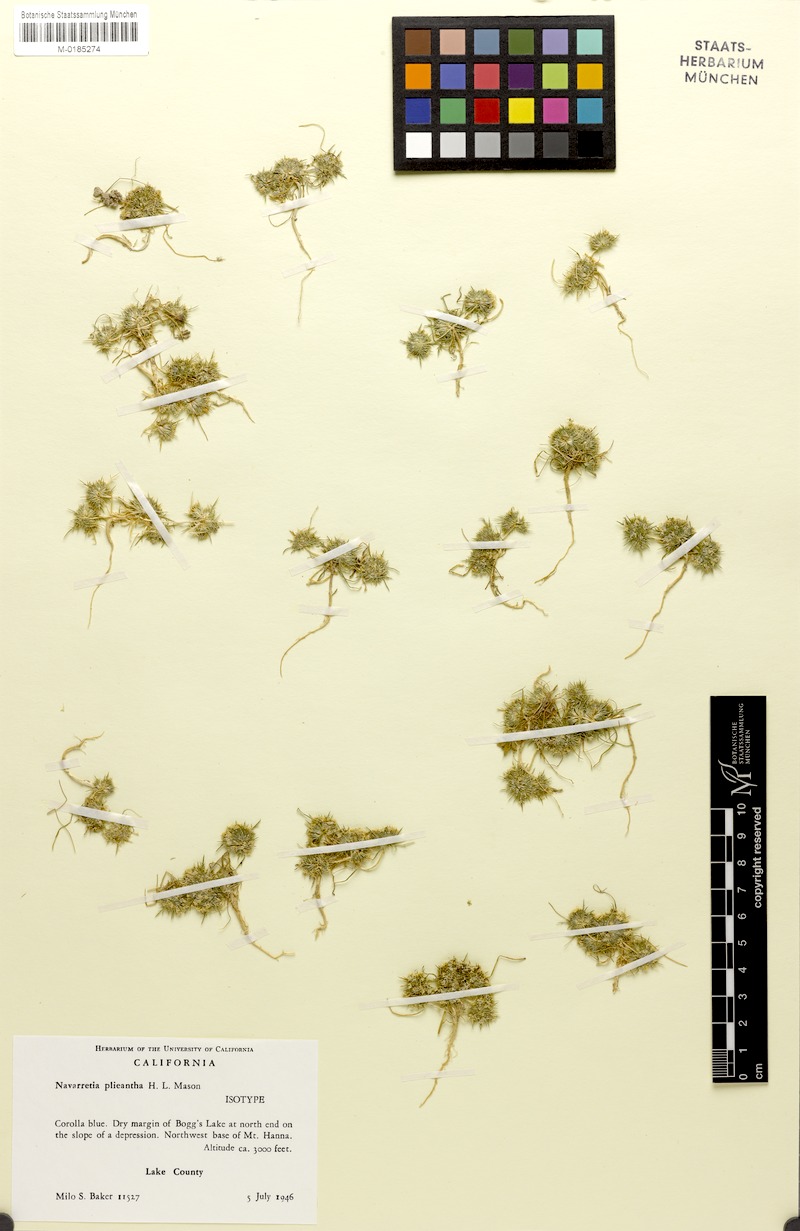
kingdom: Plantae
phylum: Tracheophyta
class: Magnoliopsida
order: Ericales
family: Polemoniaceae
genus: Navarretia
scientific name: Navarretia leucocephala
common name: White-flowered navarretia
